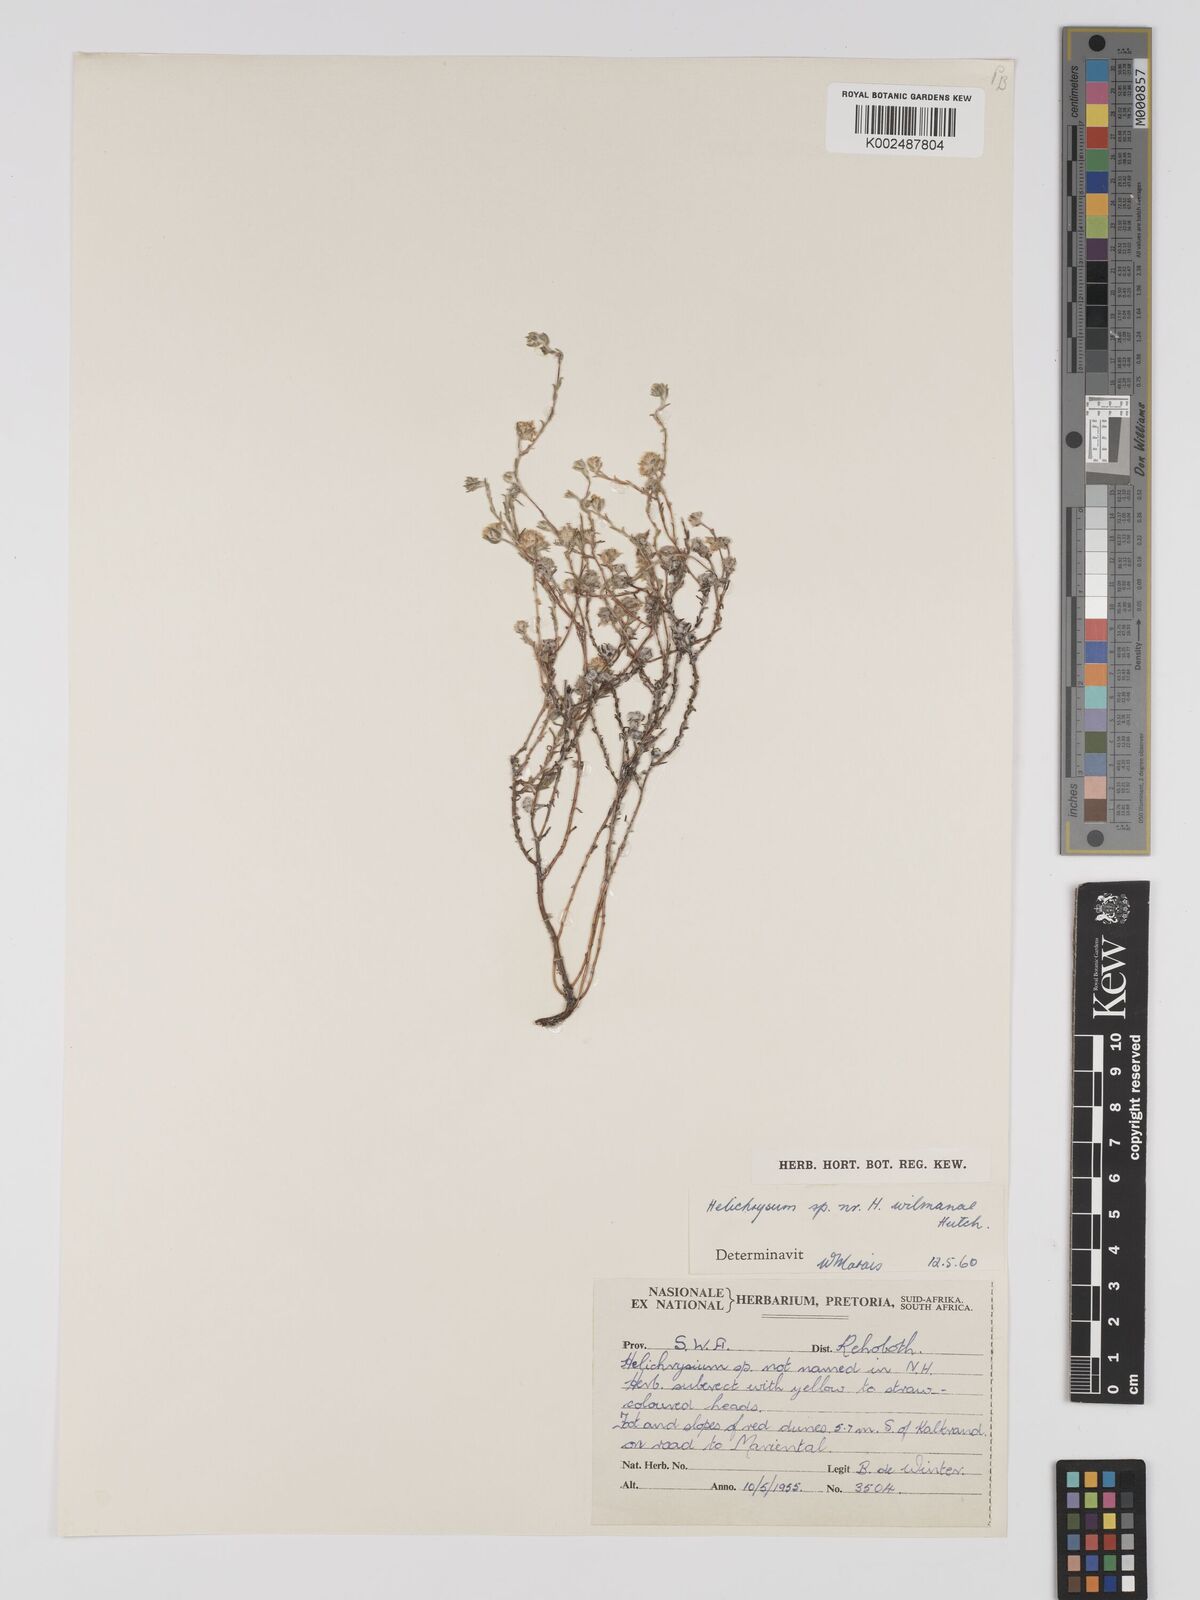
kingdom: Plantae
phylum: Tracheophyta
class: Magnoliopsida
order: Asterales
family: Asteraceae
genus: Helichrysum
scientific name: Helichrysum arenicola
